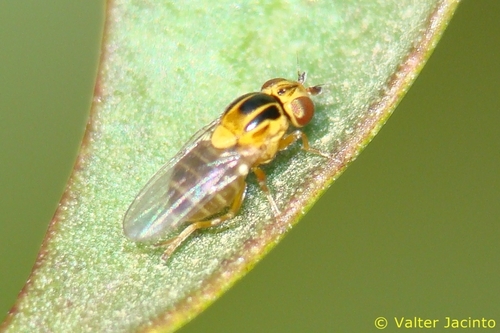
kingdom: Animalia
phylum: Arthropoda
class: Insecta
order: Diptera
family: Chloropidae
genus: Thaumatomyia
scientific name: Thaumatomyia notata
